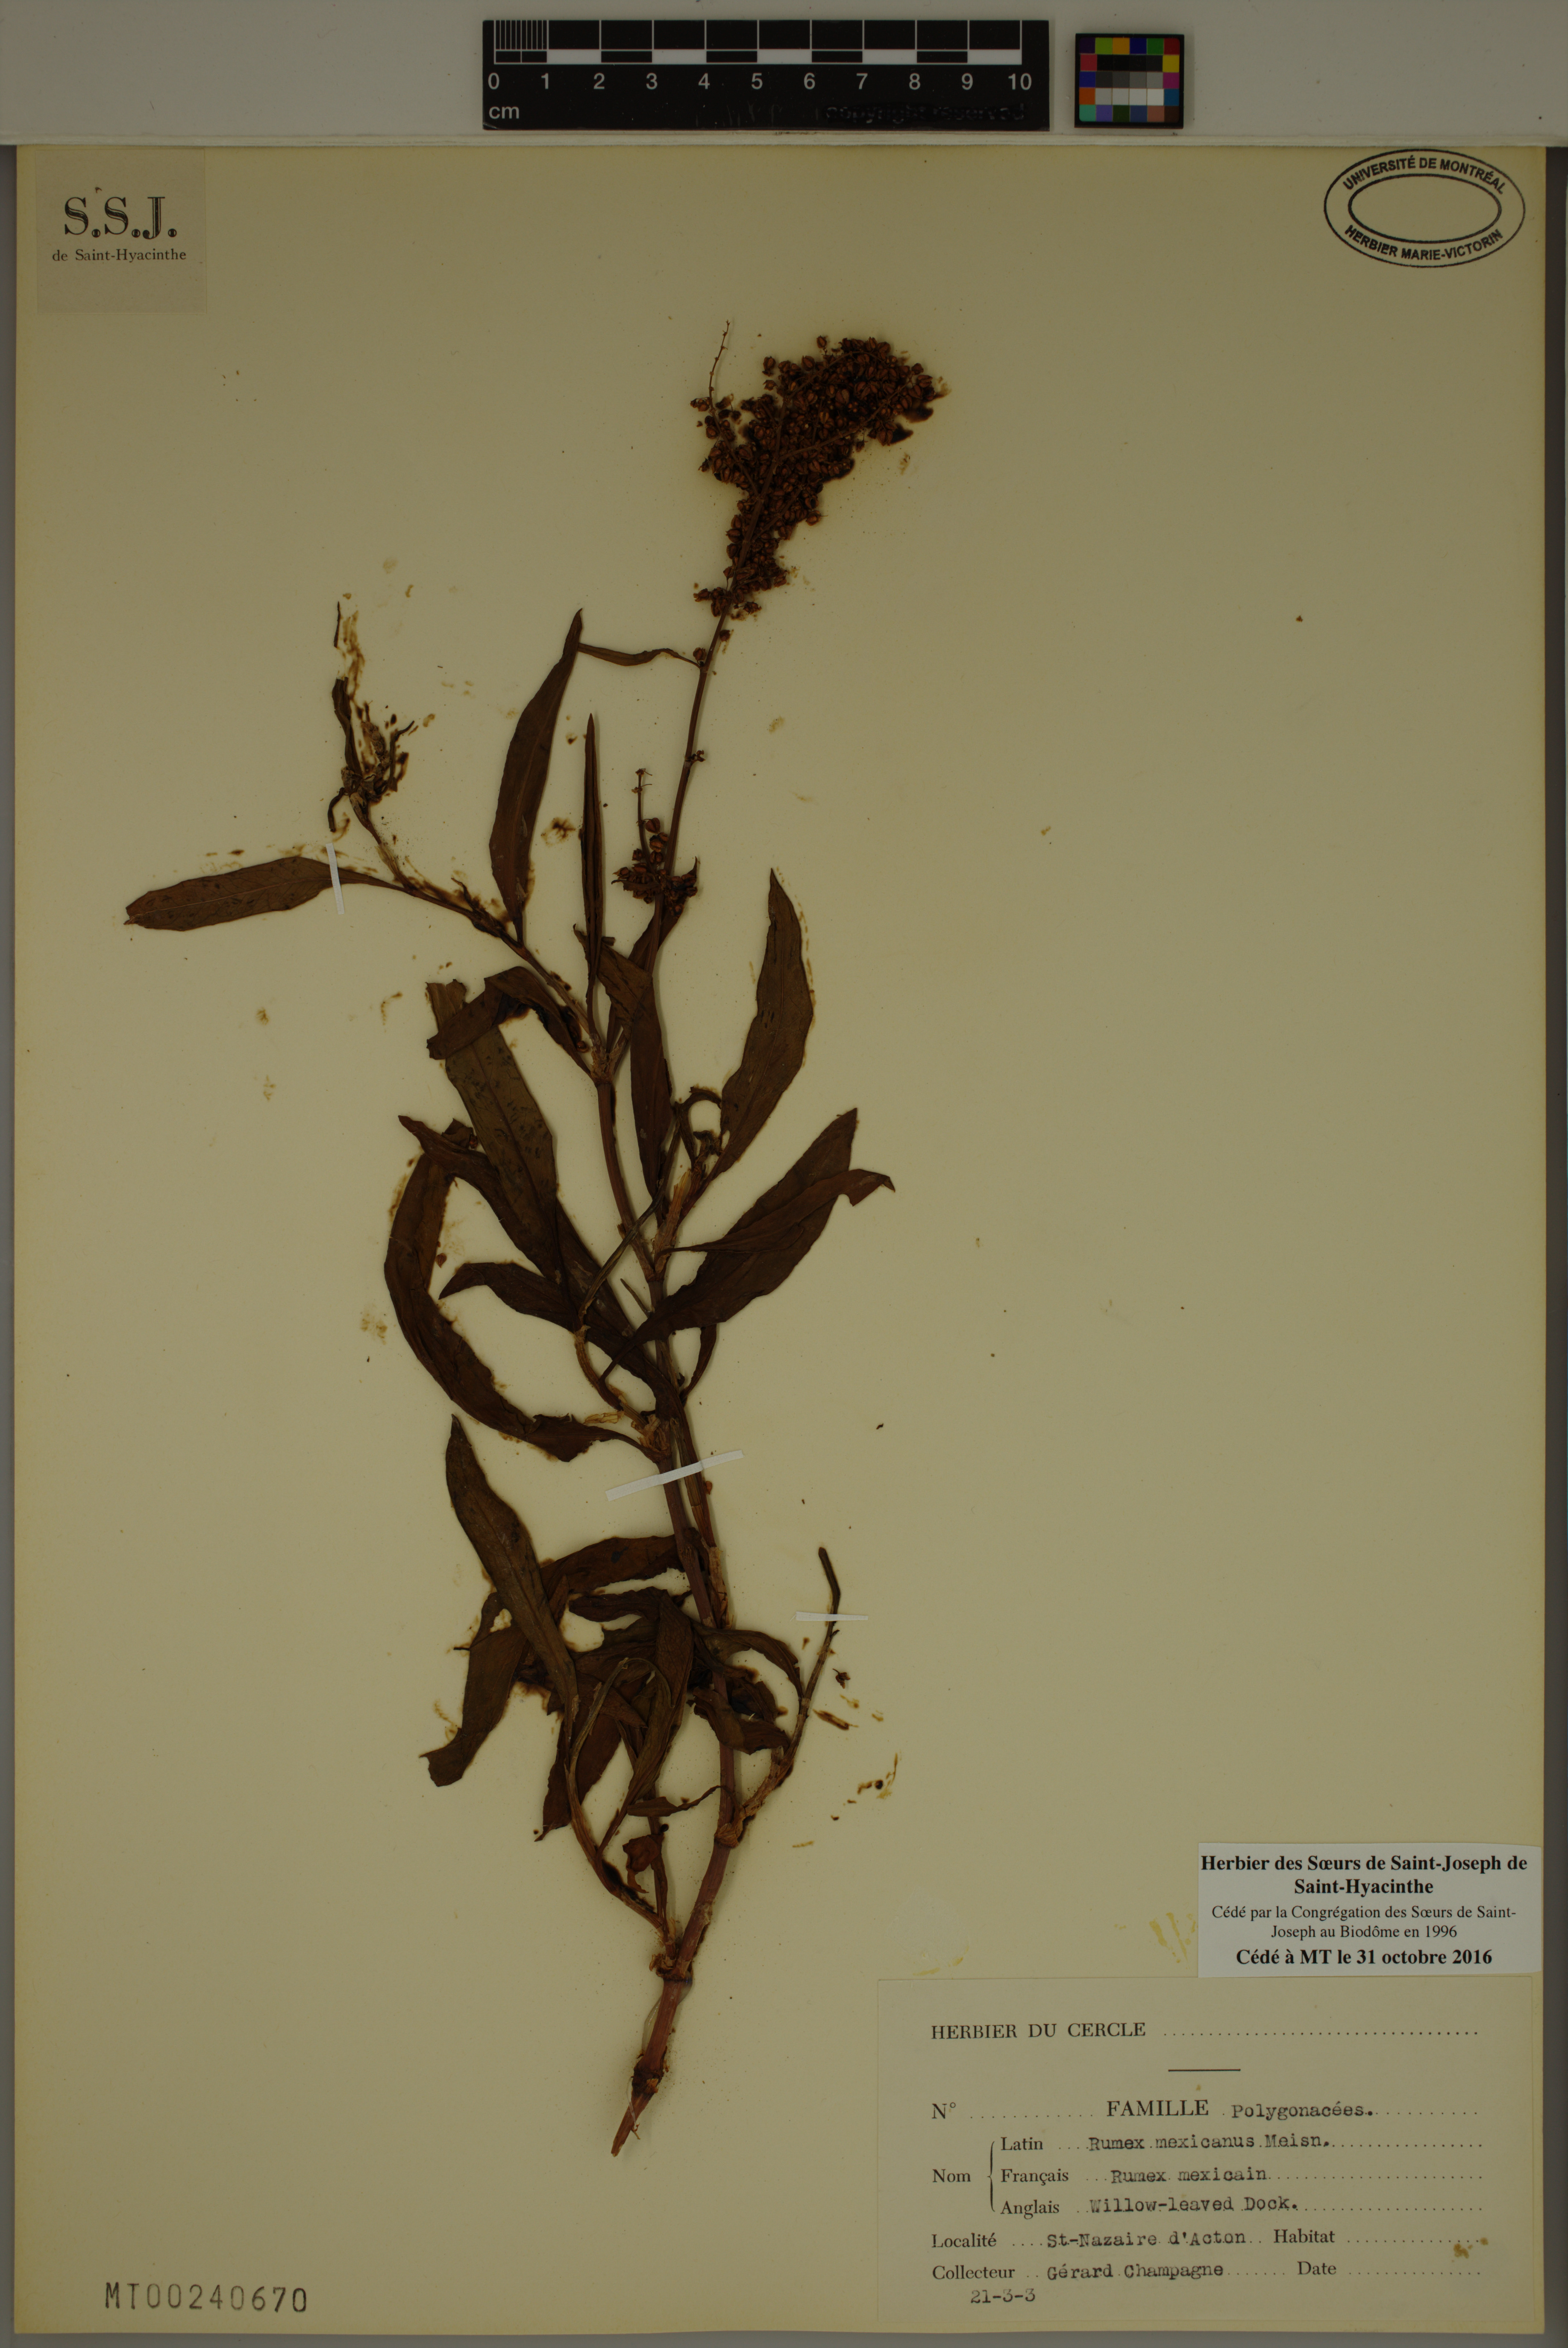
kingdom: Plantae
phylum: Tracheophyta
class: Magnoliopsida
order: Caryophyllales
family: Polygonaceae
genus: Rumex
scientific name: Rumex triangulivalvis
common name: Triangular-valve dock
